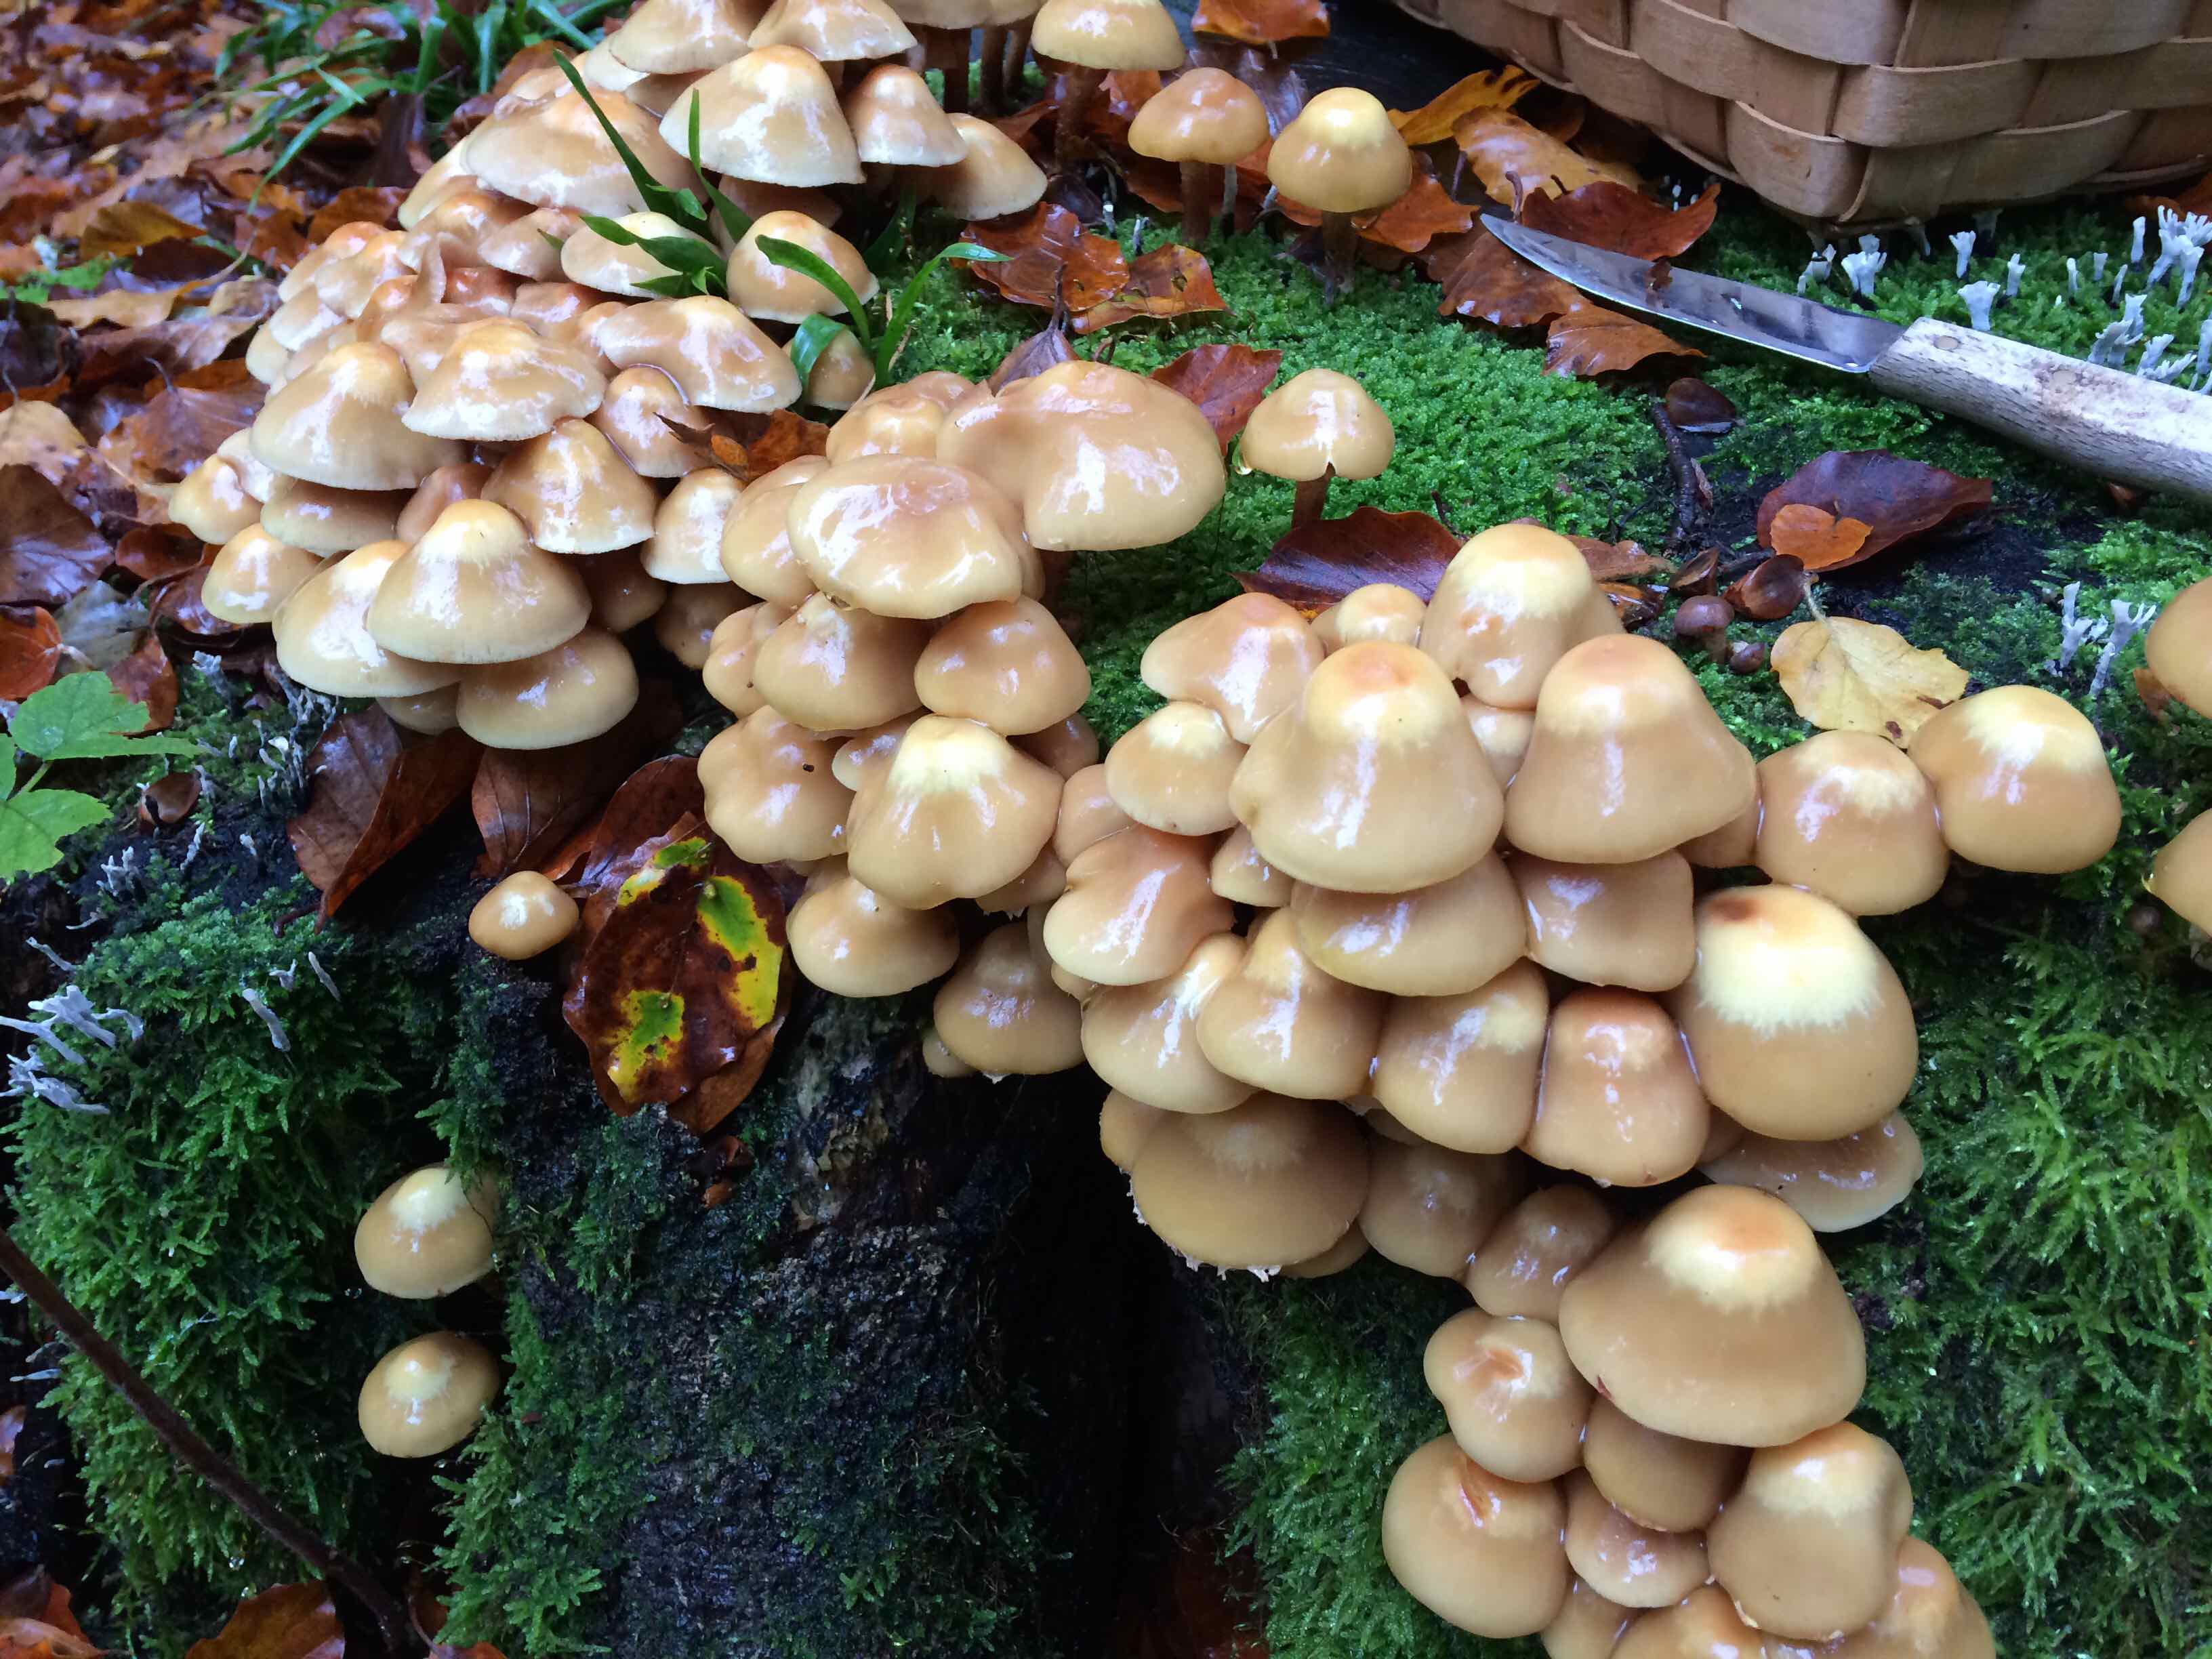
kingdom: Fungi
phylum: Basidiomycota
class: Agaricomycetes
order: Agaricales
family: Strophariaceae
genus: Kuehneromyces
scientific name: Kuehneromyces mutabilis
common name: foranderlig skælhat
